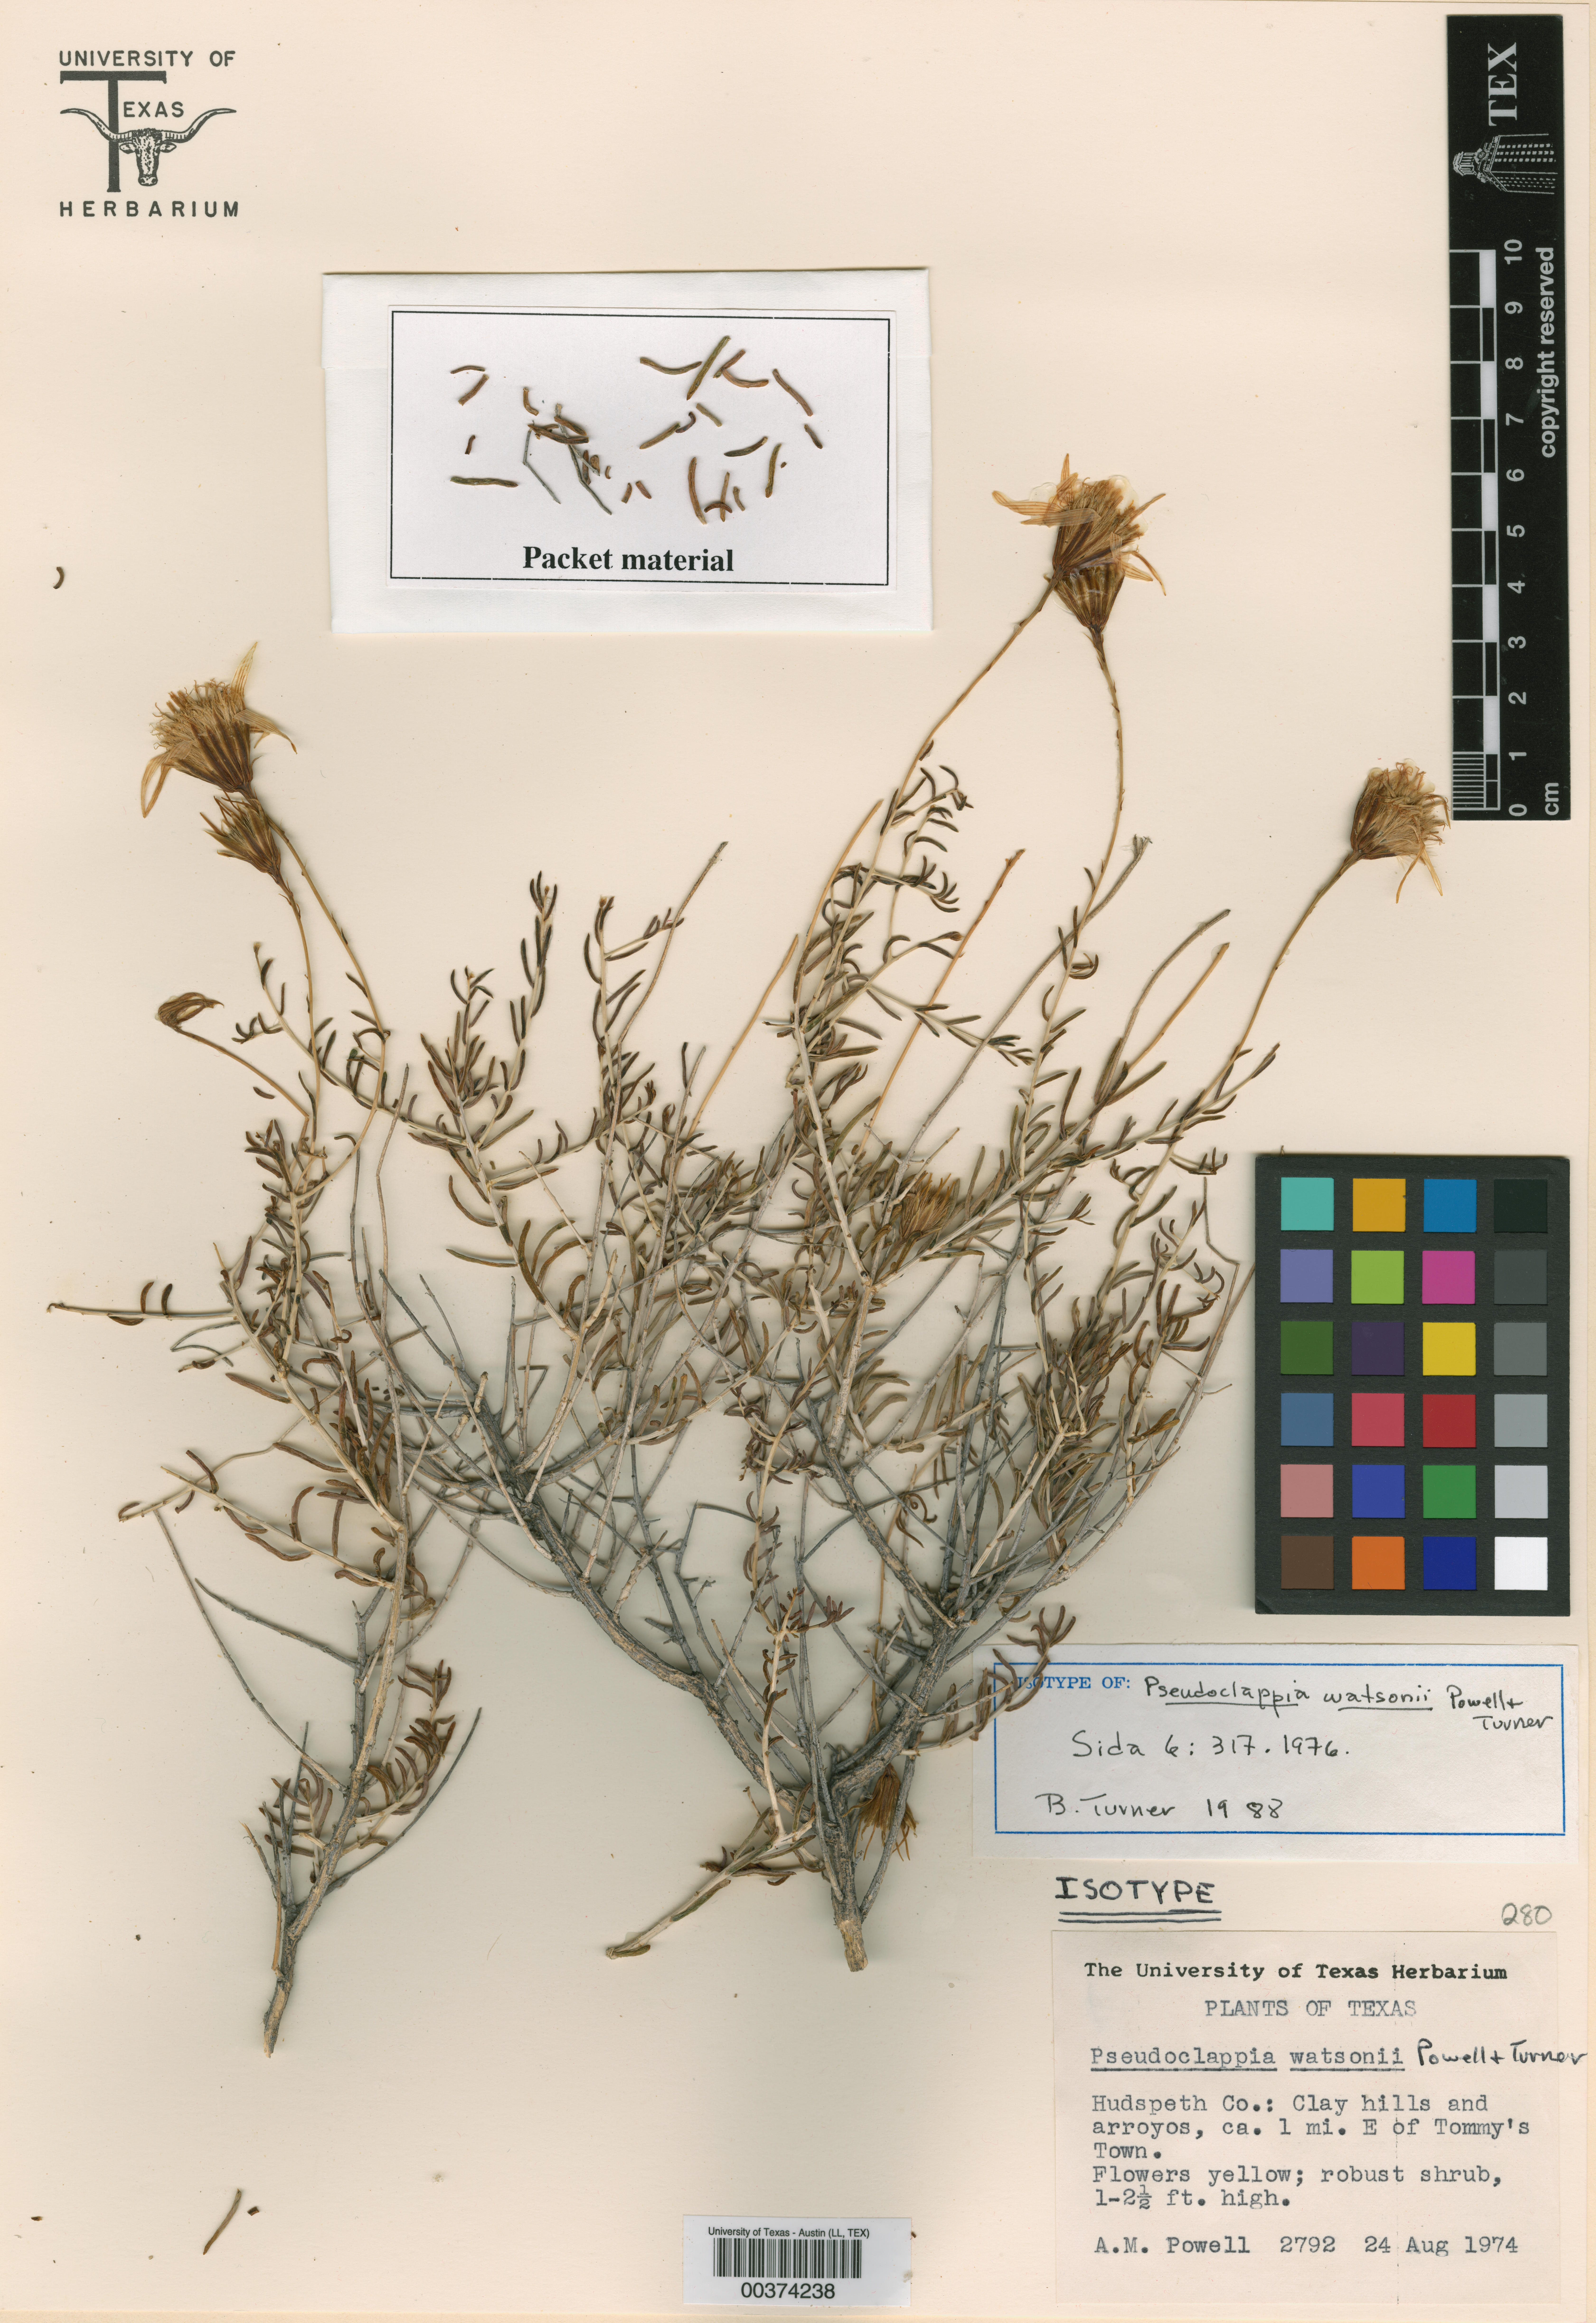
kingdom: Plantae
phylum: Tracheophyta
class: Magnoliopsida
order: Asterales
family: Asteraceae
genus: Pseudoclappia
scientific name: Pseudoclappia watsonii
